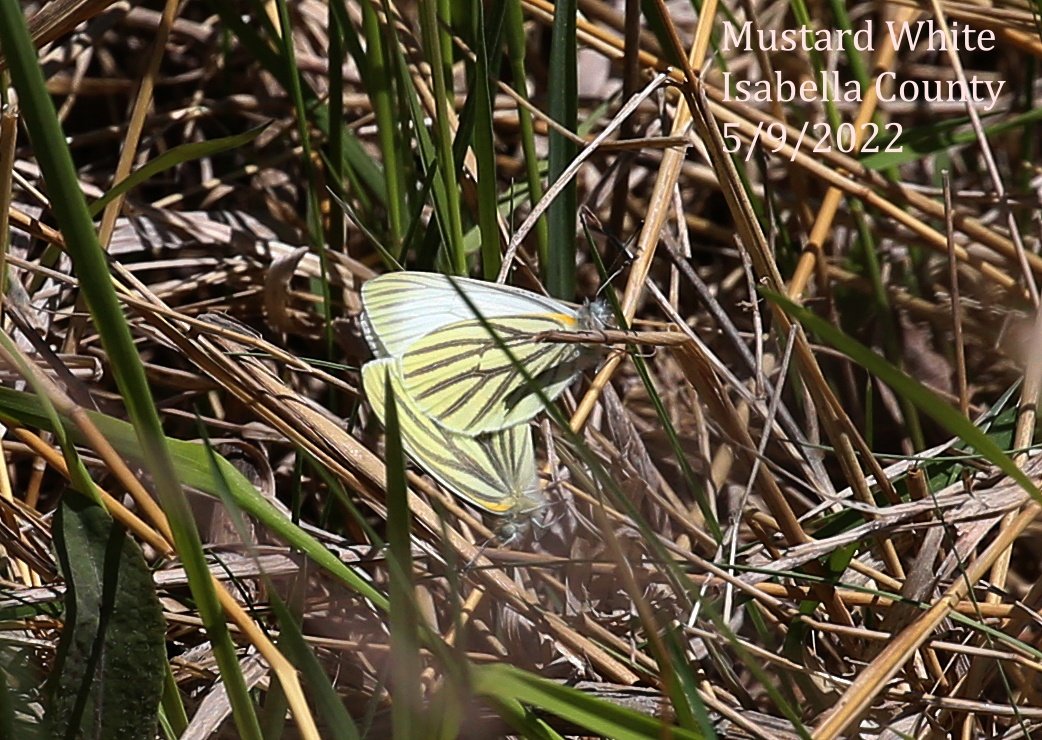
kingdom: Animalia
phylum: Arthropoda
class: Insecta
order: Lepidoptera
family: Pieridae
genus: Pieris
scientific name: Pieris oleracea
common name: Mustard White
